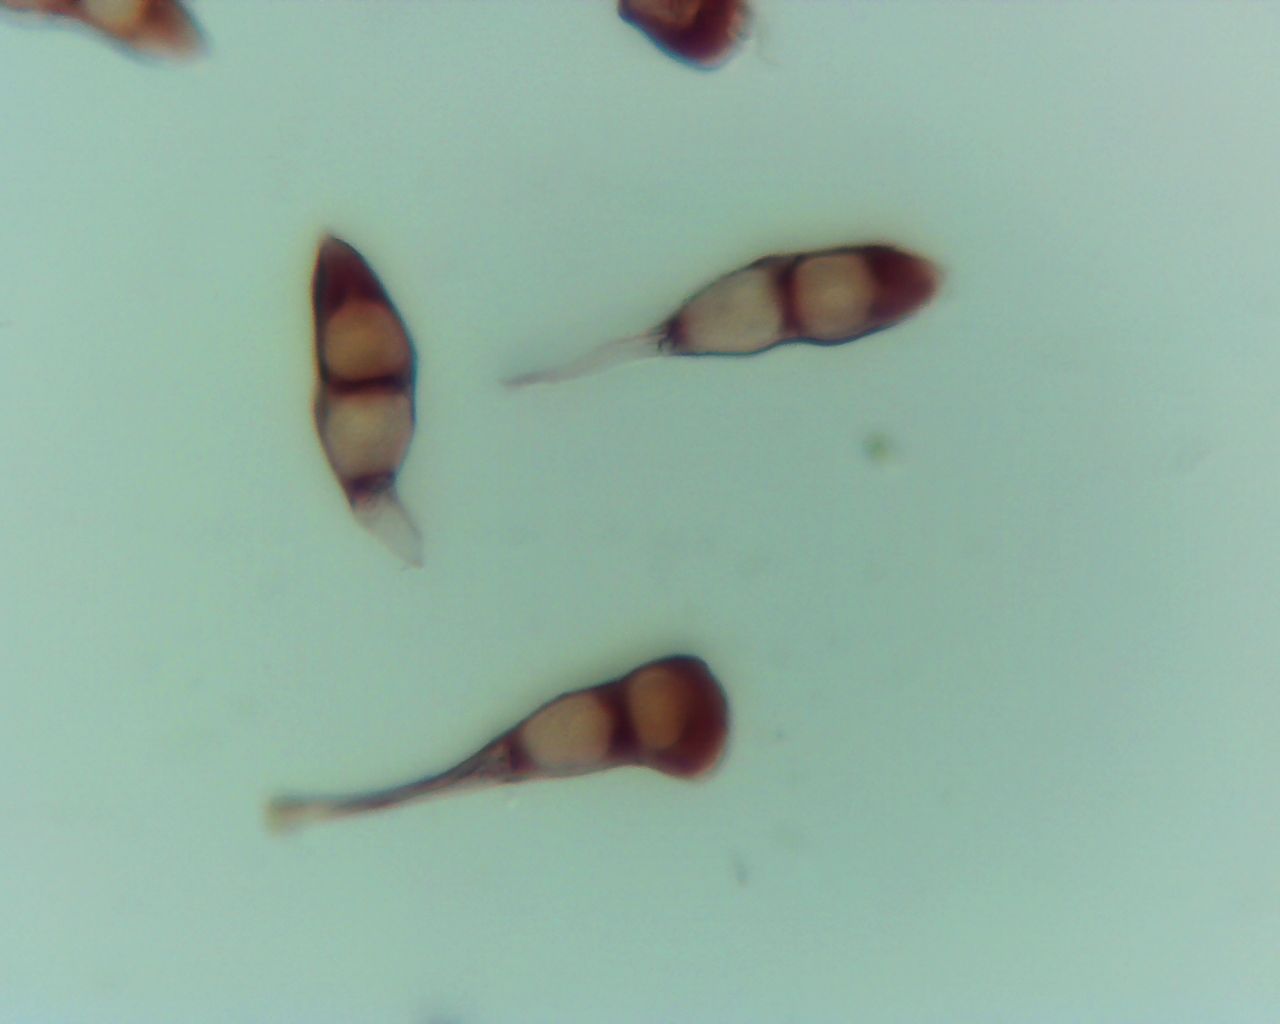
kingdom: Fungi
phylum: Basidiomycota
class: Pucciniomycetes
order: Pucciniales
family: Pucciniaceae
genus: Puccinia
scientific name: Puccinia punctata
